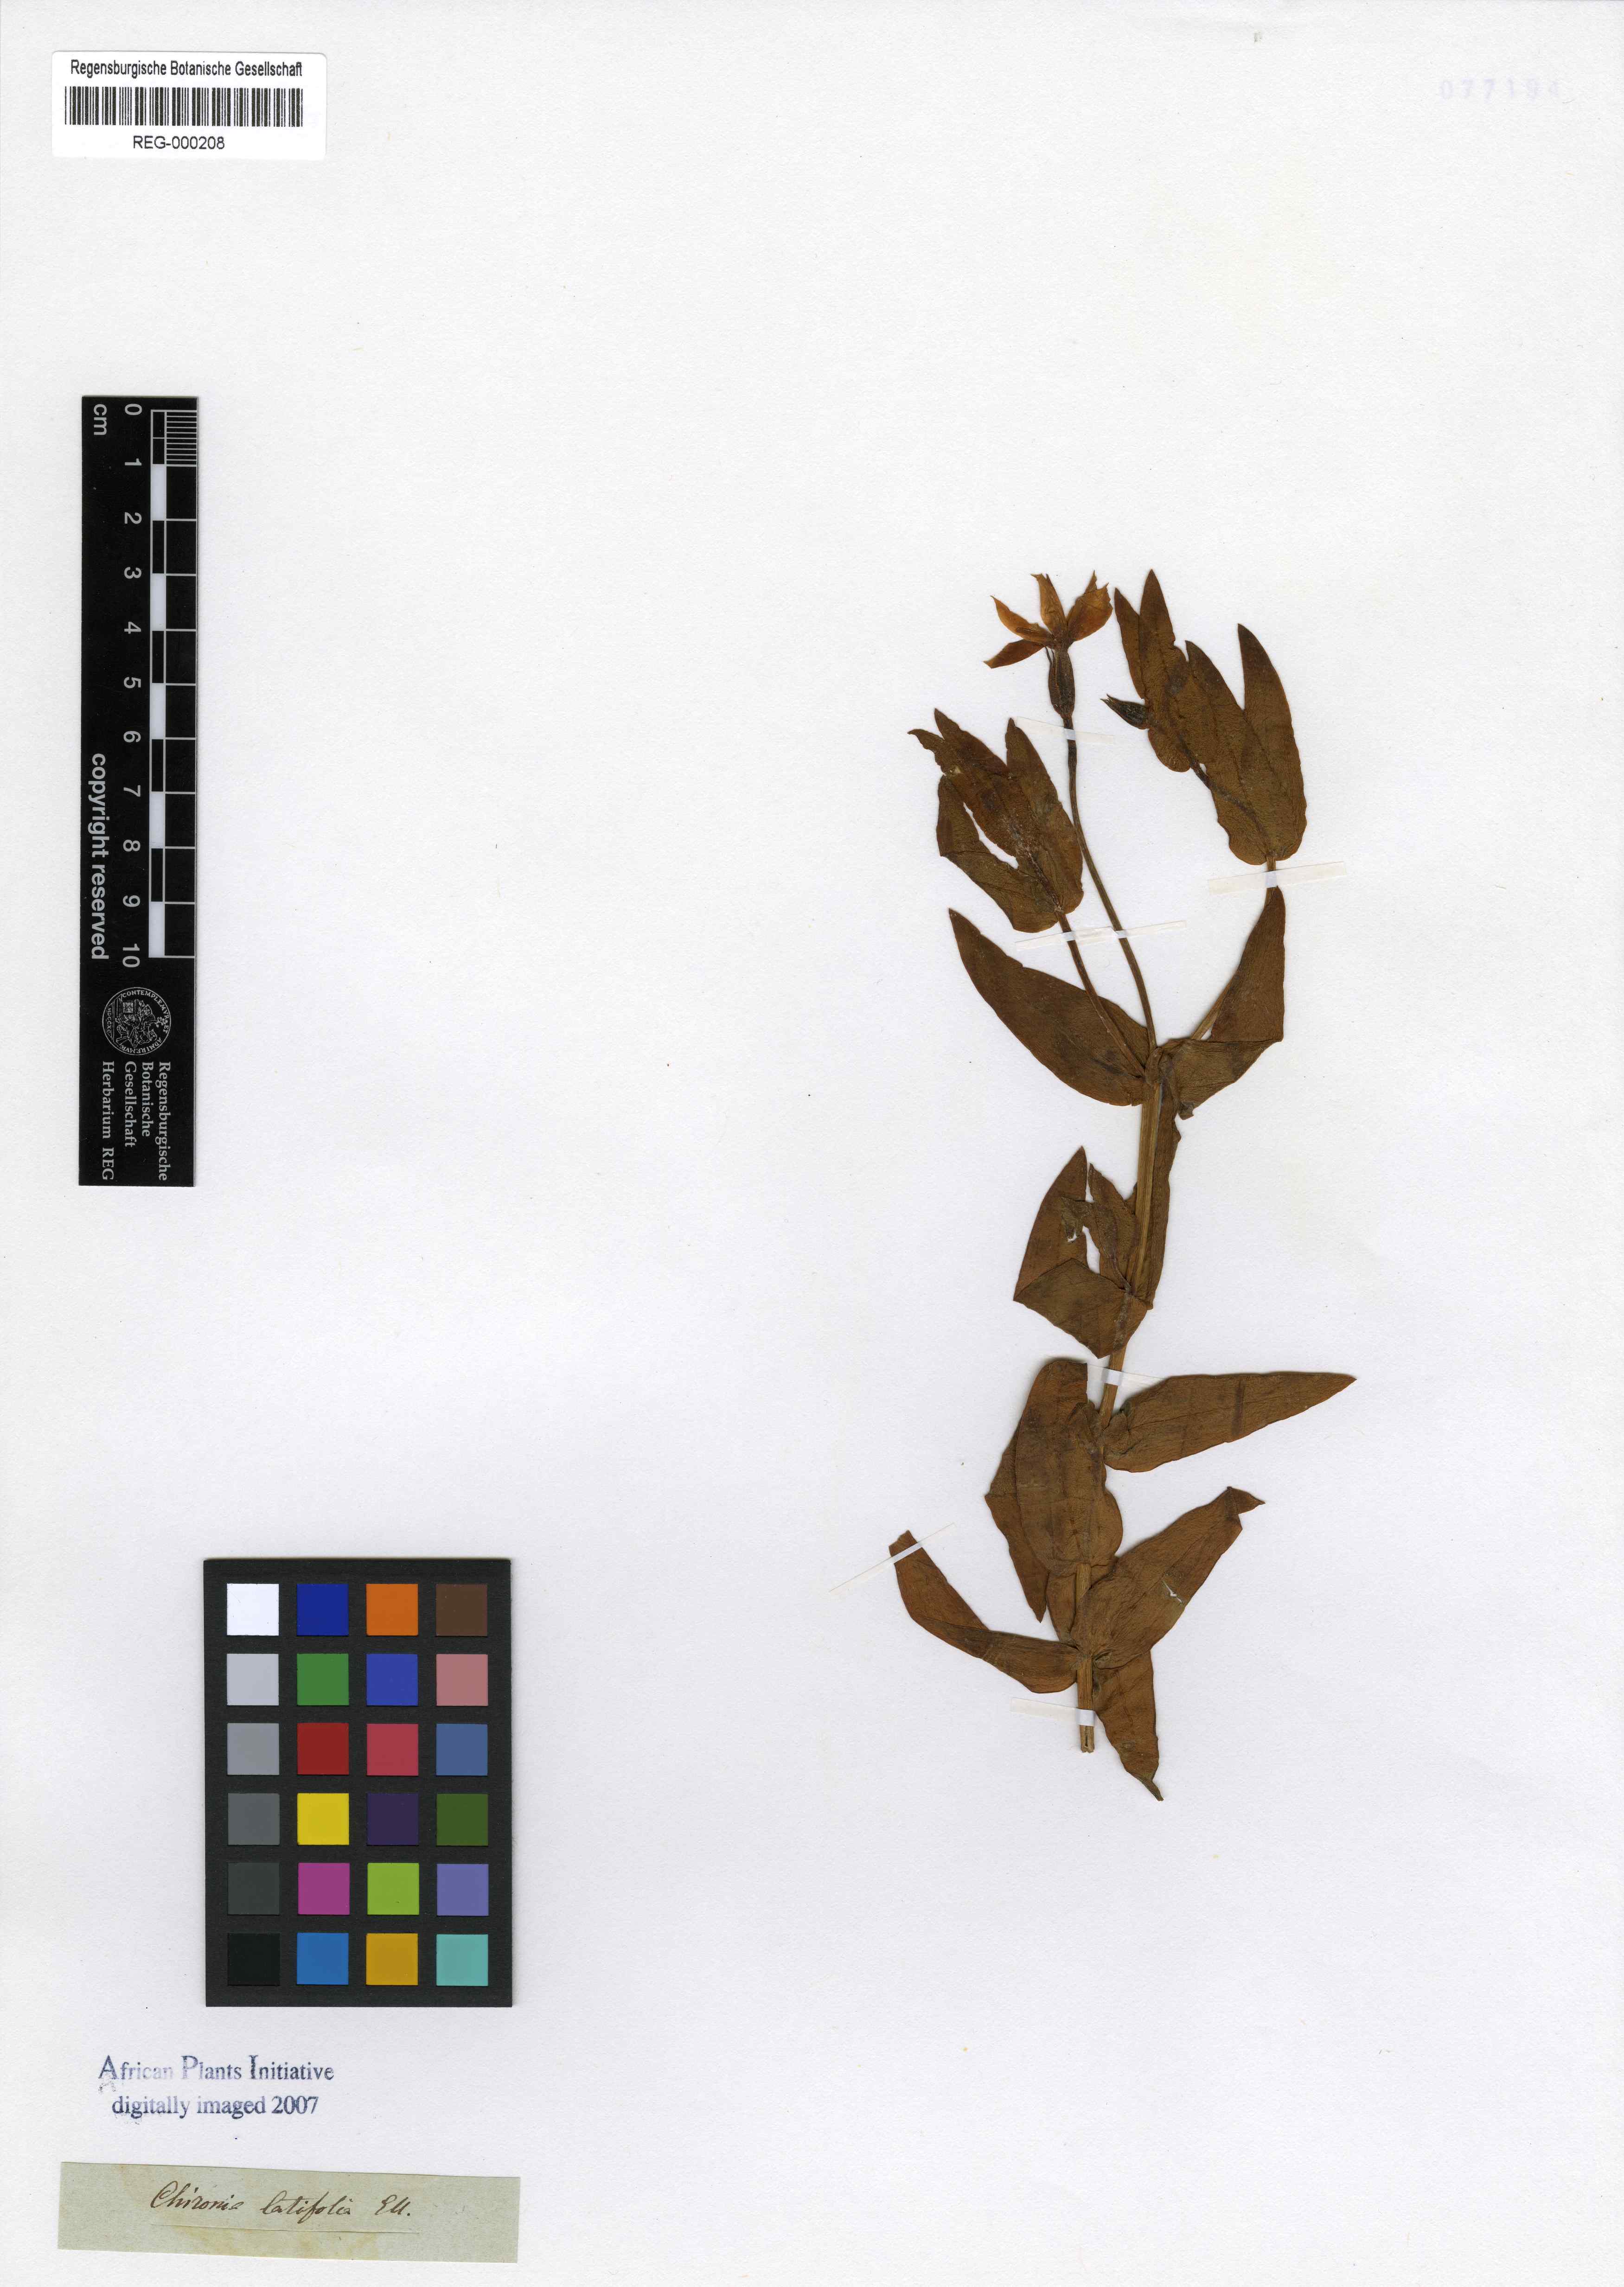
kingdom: Plantae
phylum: Tracheophyta
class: Magnoliopsida
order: Gentianales
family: Gentianaceae
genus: Chironia
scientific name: Chironia peduncularis
